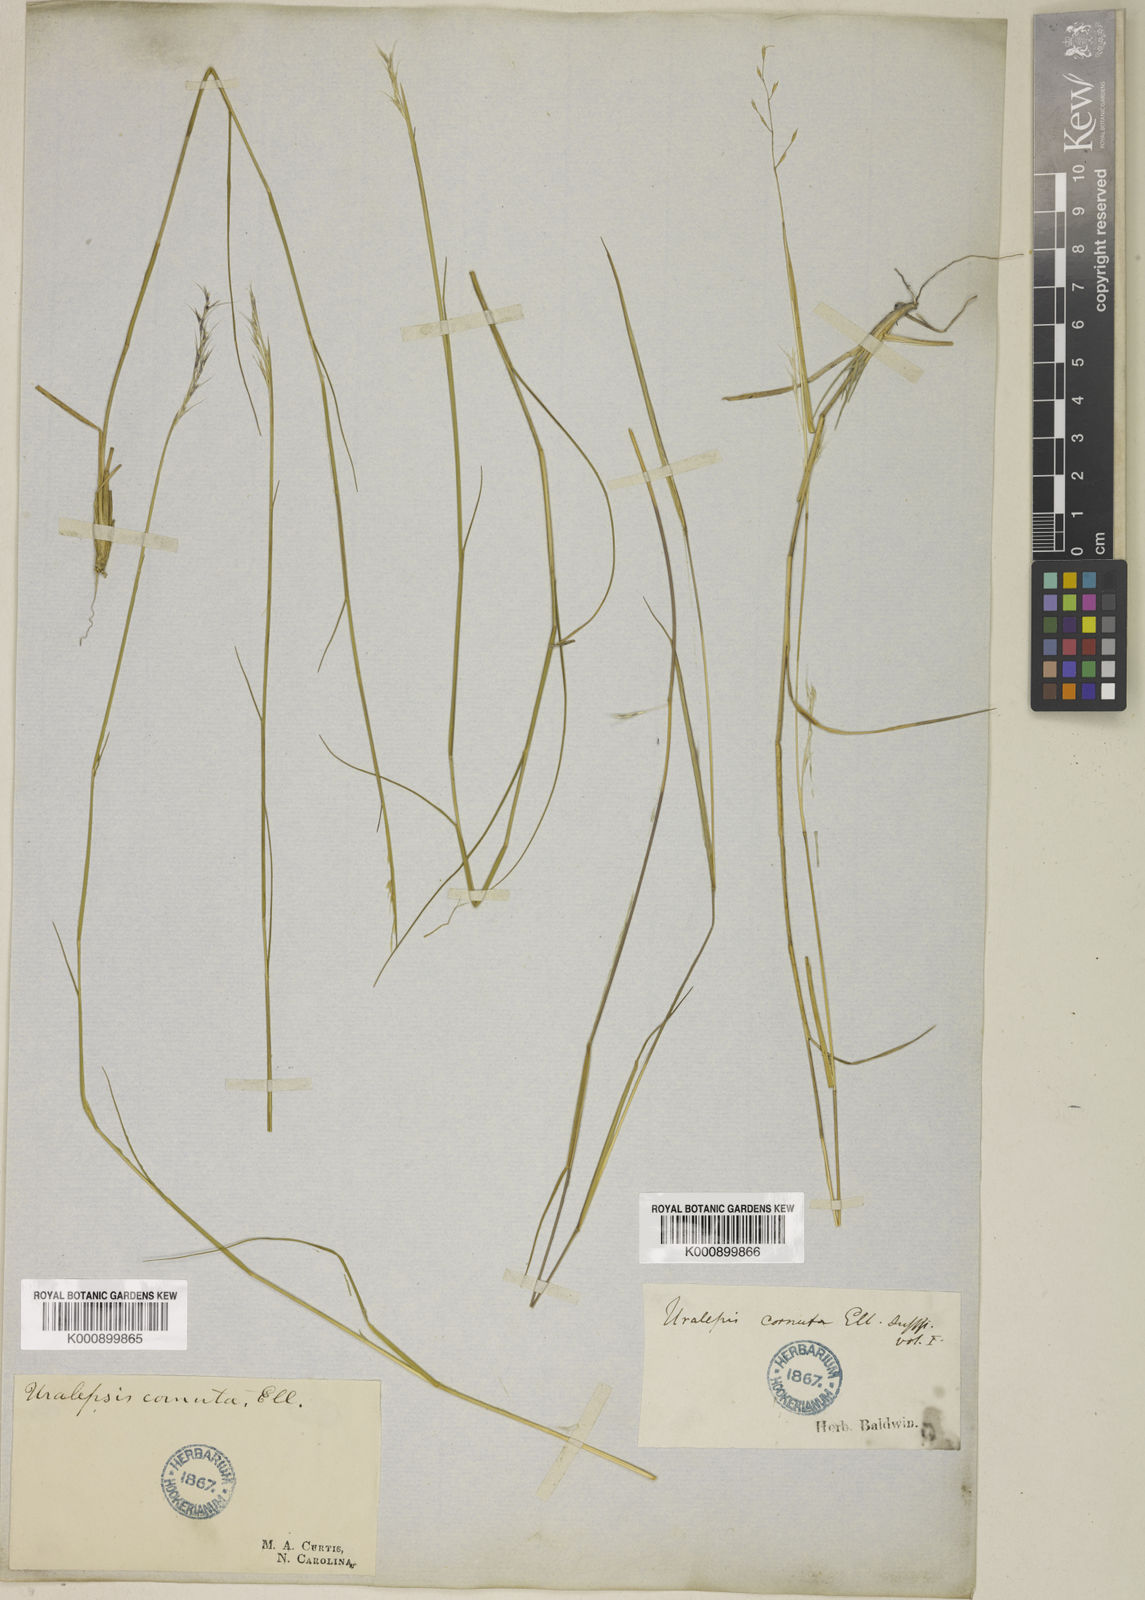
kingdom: Plantae
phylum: Tracheophyta
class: Liliopsida
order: Poales
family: Poaceae
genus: Triplasis
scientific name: Triplasis americana
